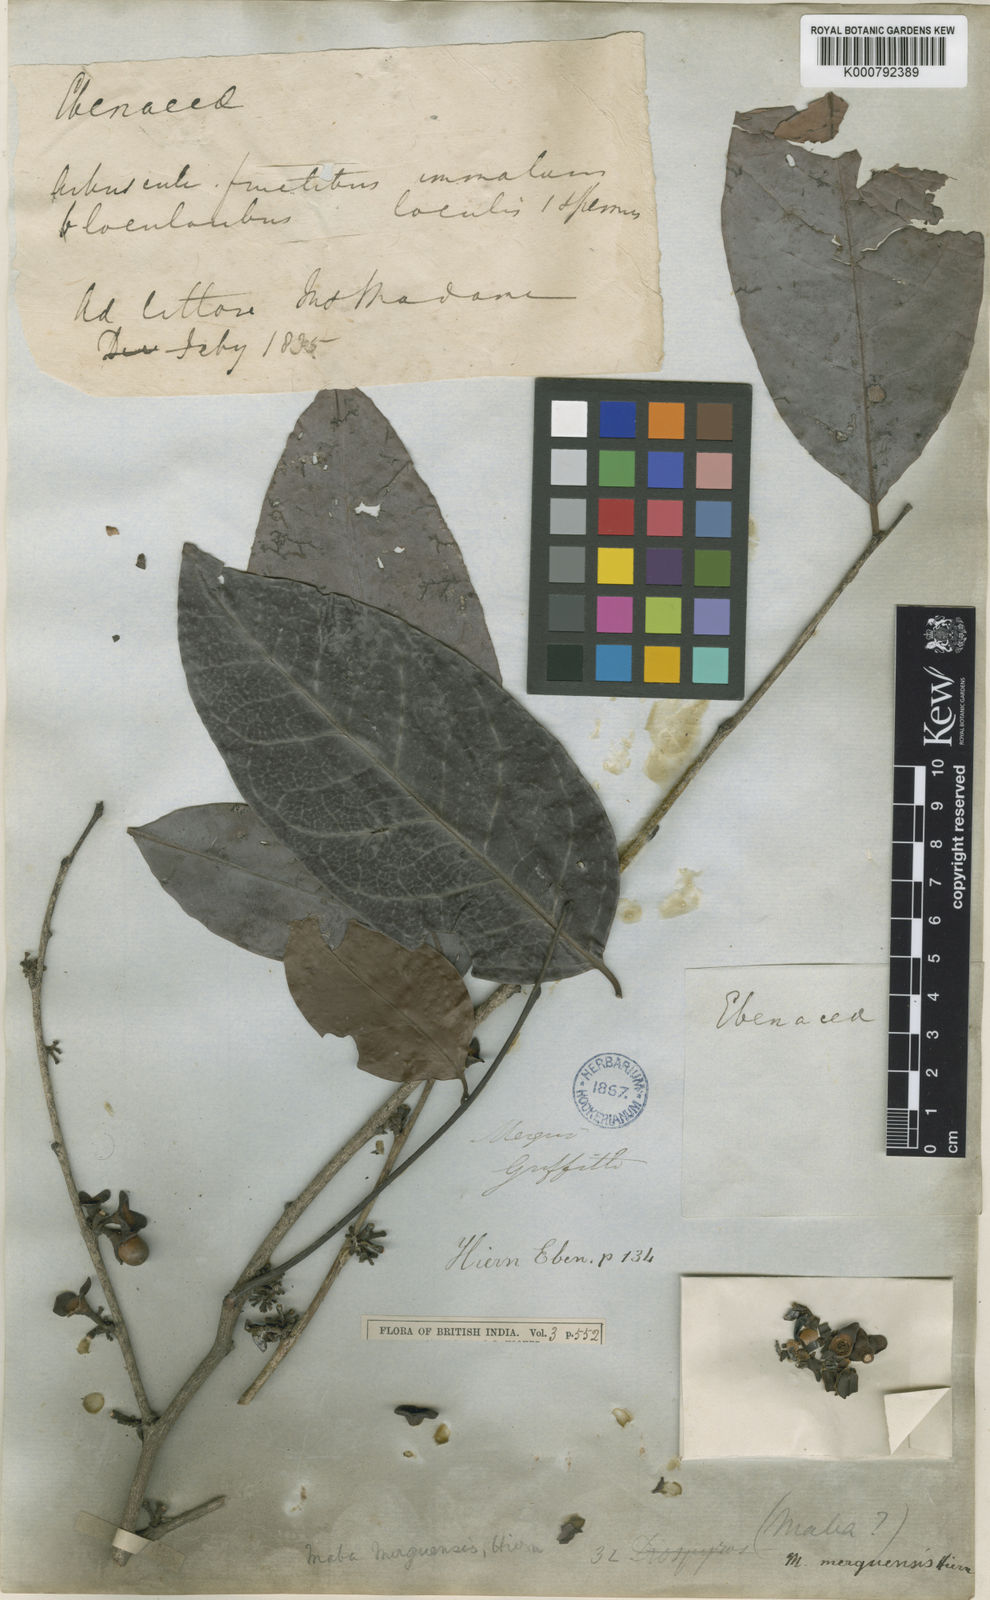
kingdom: Plantae
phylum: Tracheophyta
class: Magnoliopsida
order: Ericales
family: Ebenaceae
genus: Diospyros
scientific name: Diospyros venosa
